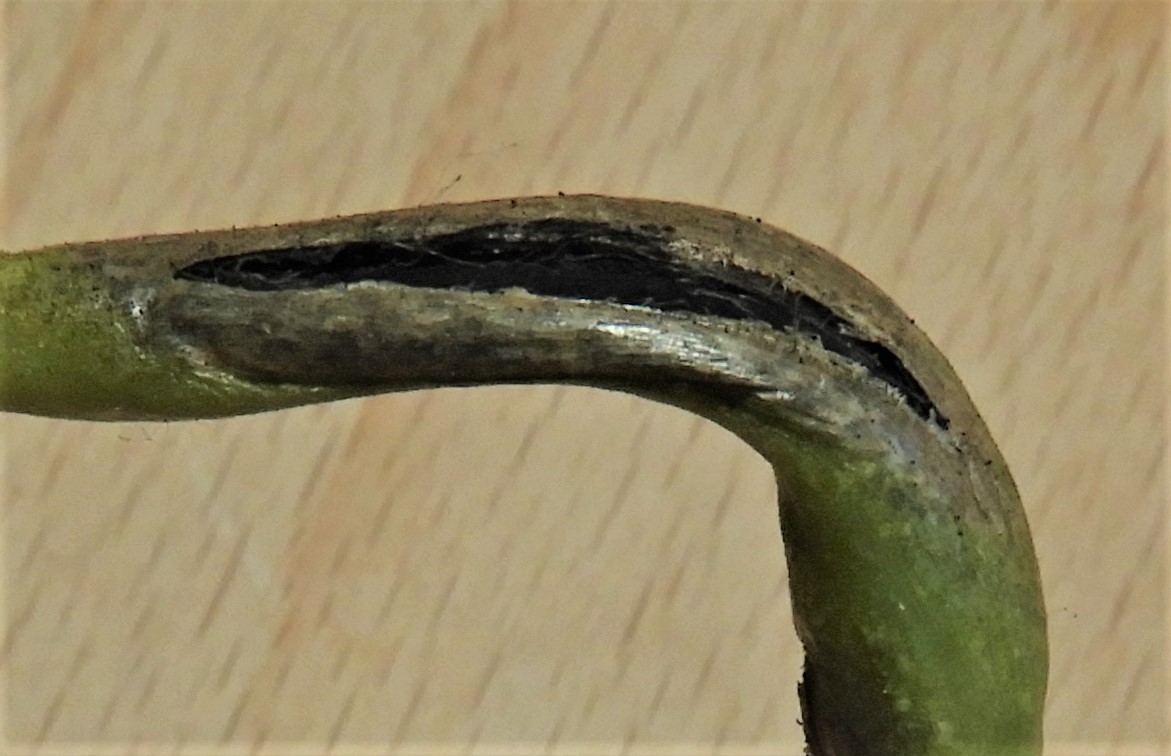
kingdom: Fungi
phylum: Basidiomycota
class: Ustilaginomycetes
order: Urocystidales
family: Urocystidaceae
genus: Urocystis
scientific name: Urocystis eranthidis
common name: erantis-brand
